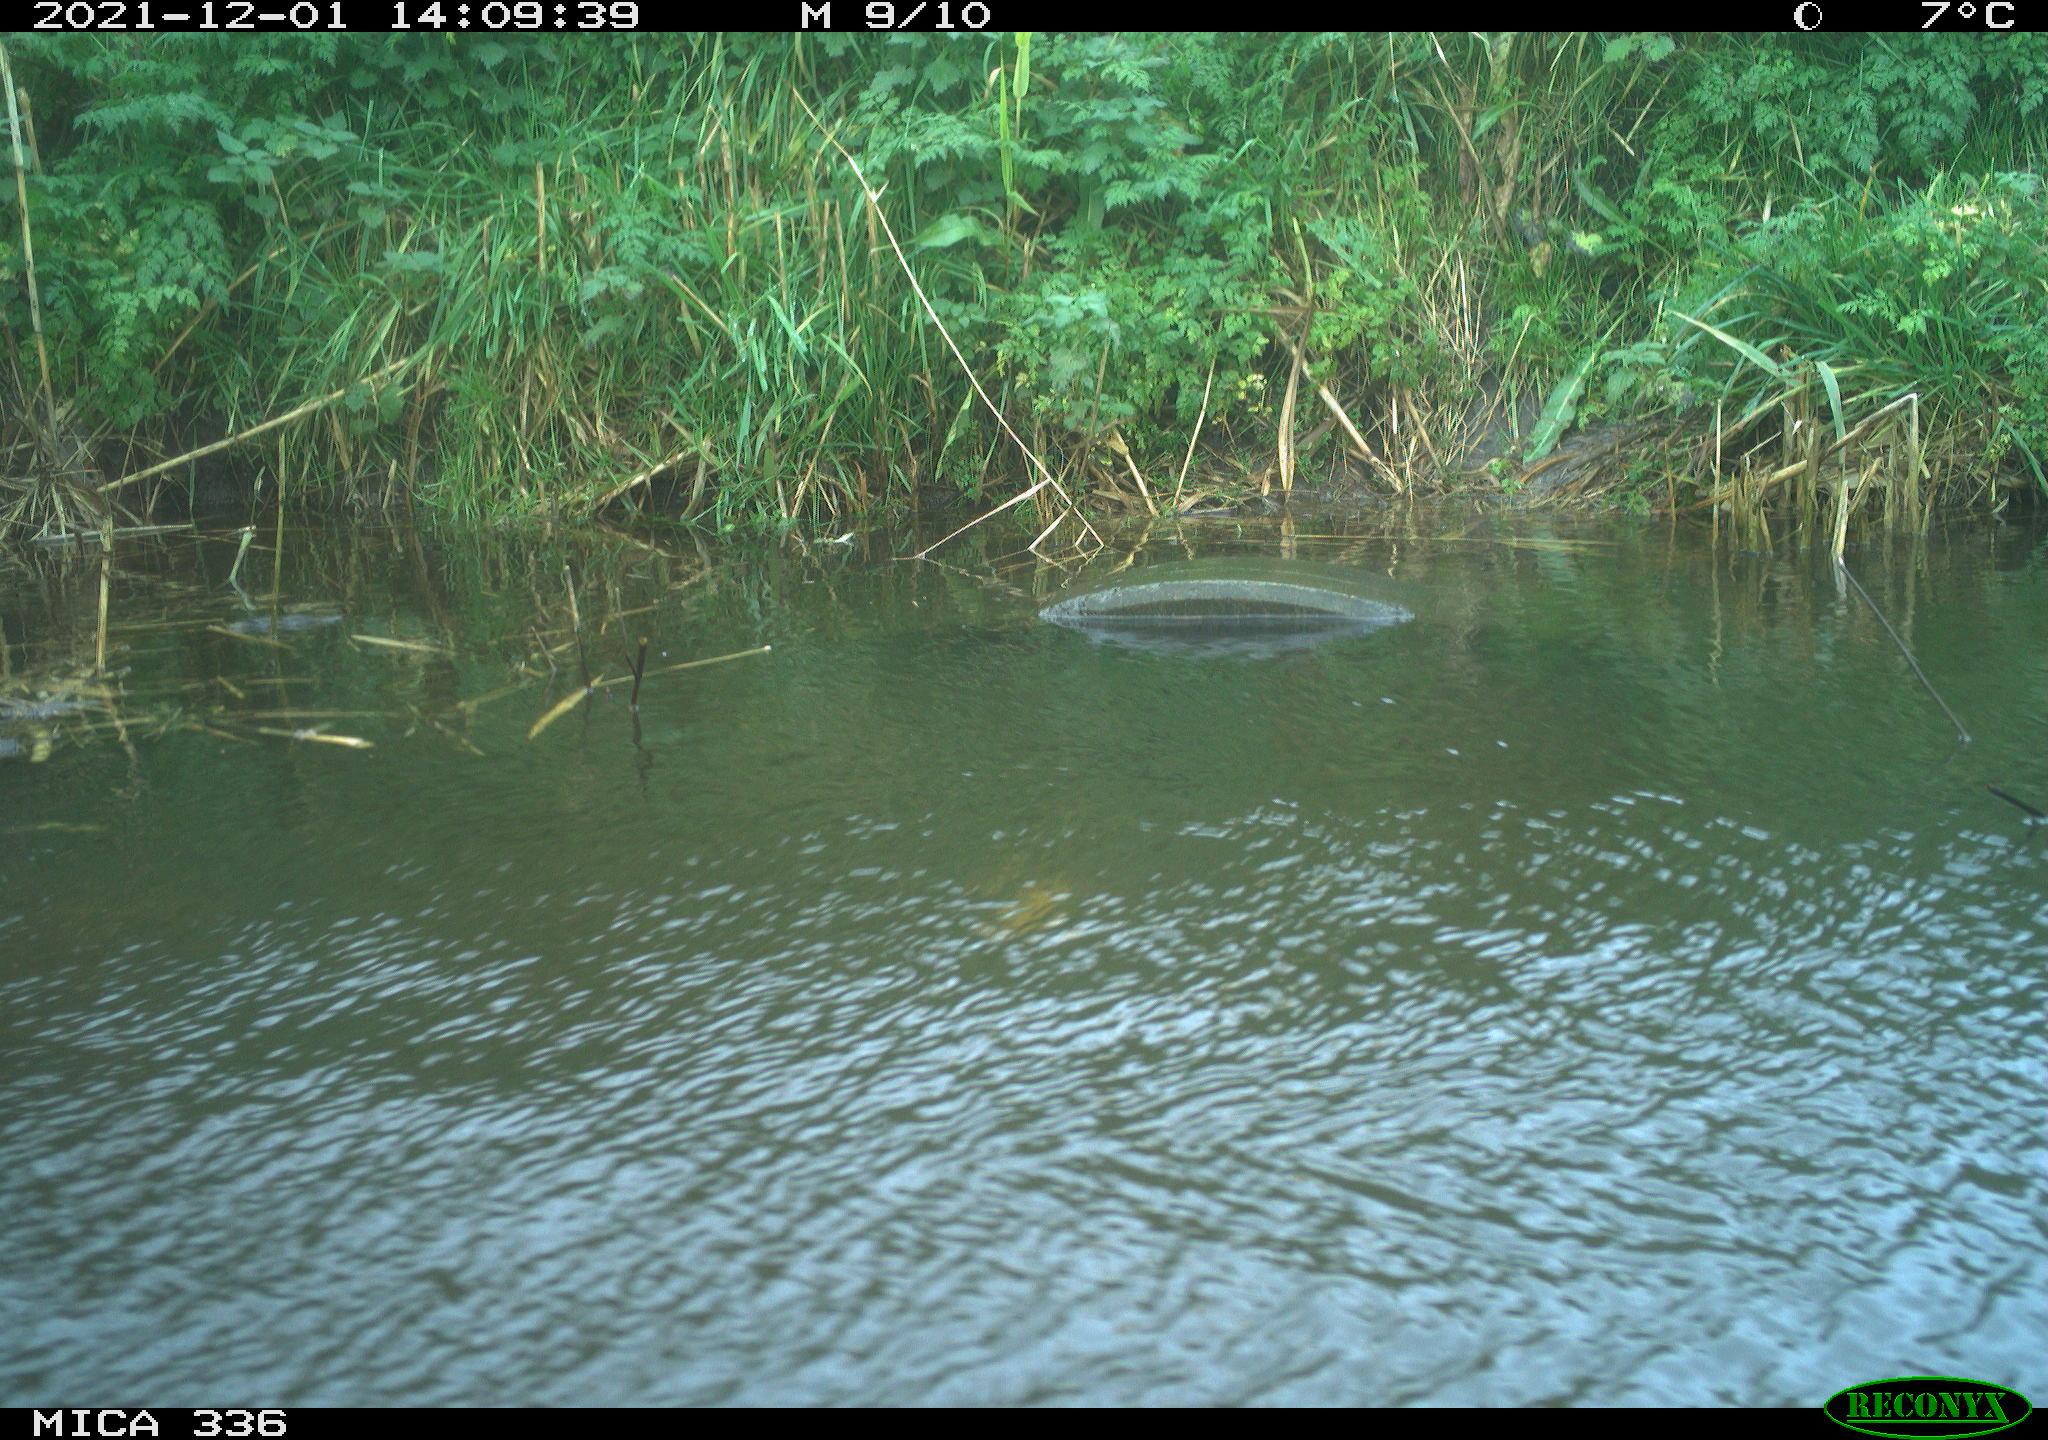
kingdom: Animalia
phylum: Chordata
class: Aves
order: Gruiformes
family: Rallidae
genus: Gallinula
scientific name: Gallinula chloropus
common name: Common moorhen
